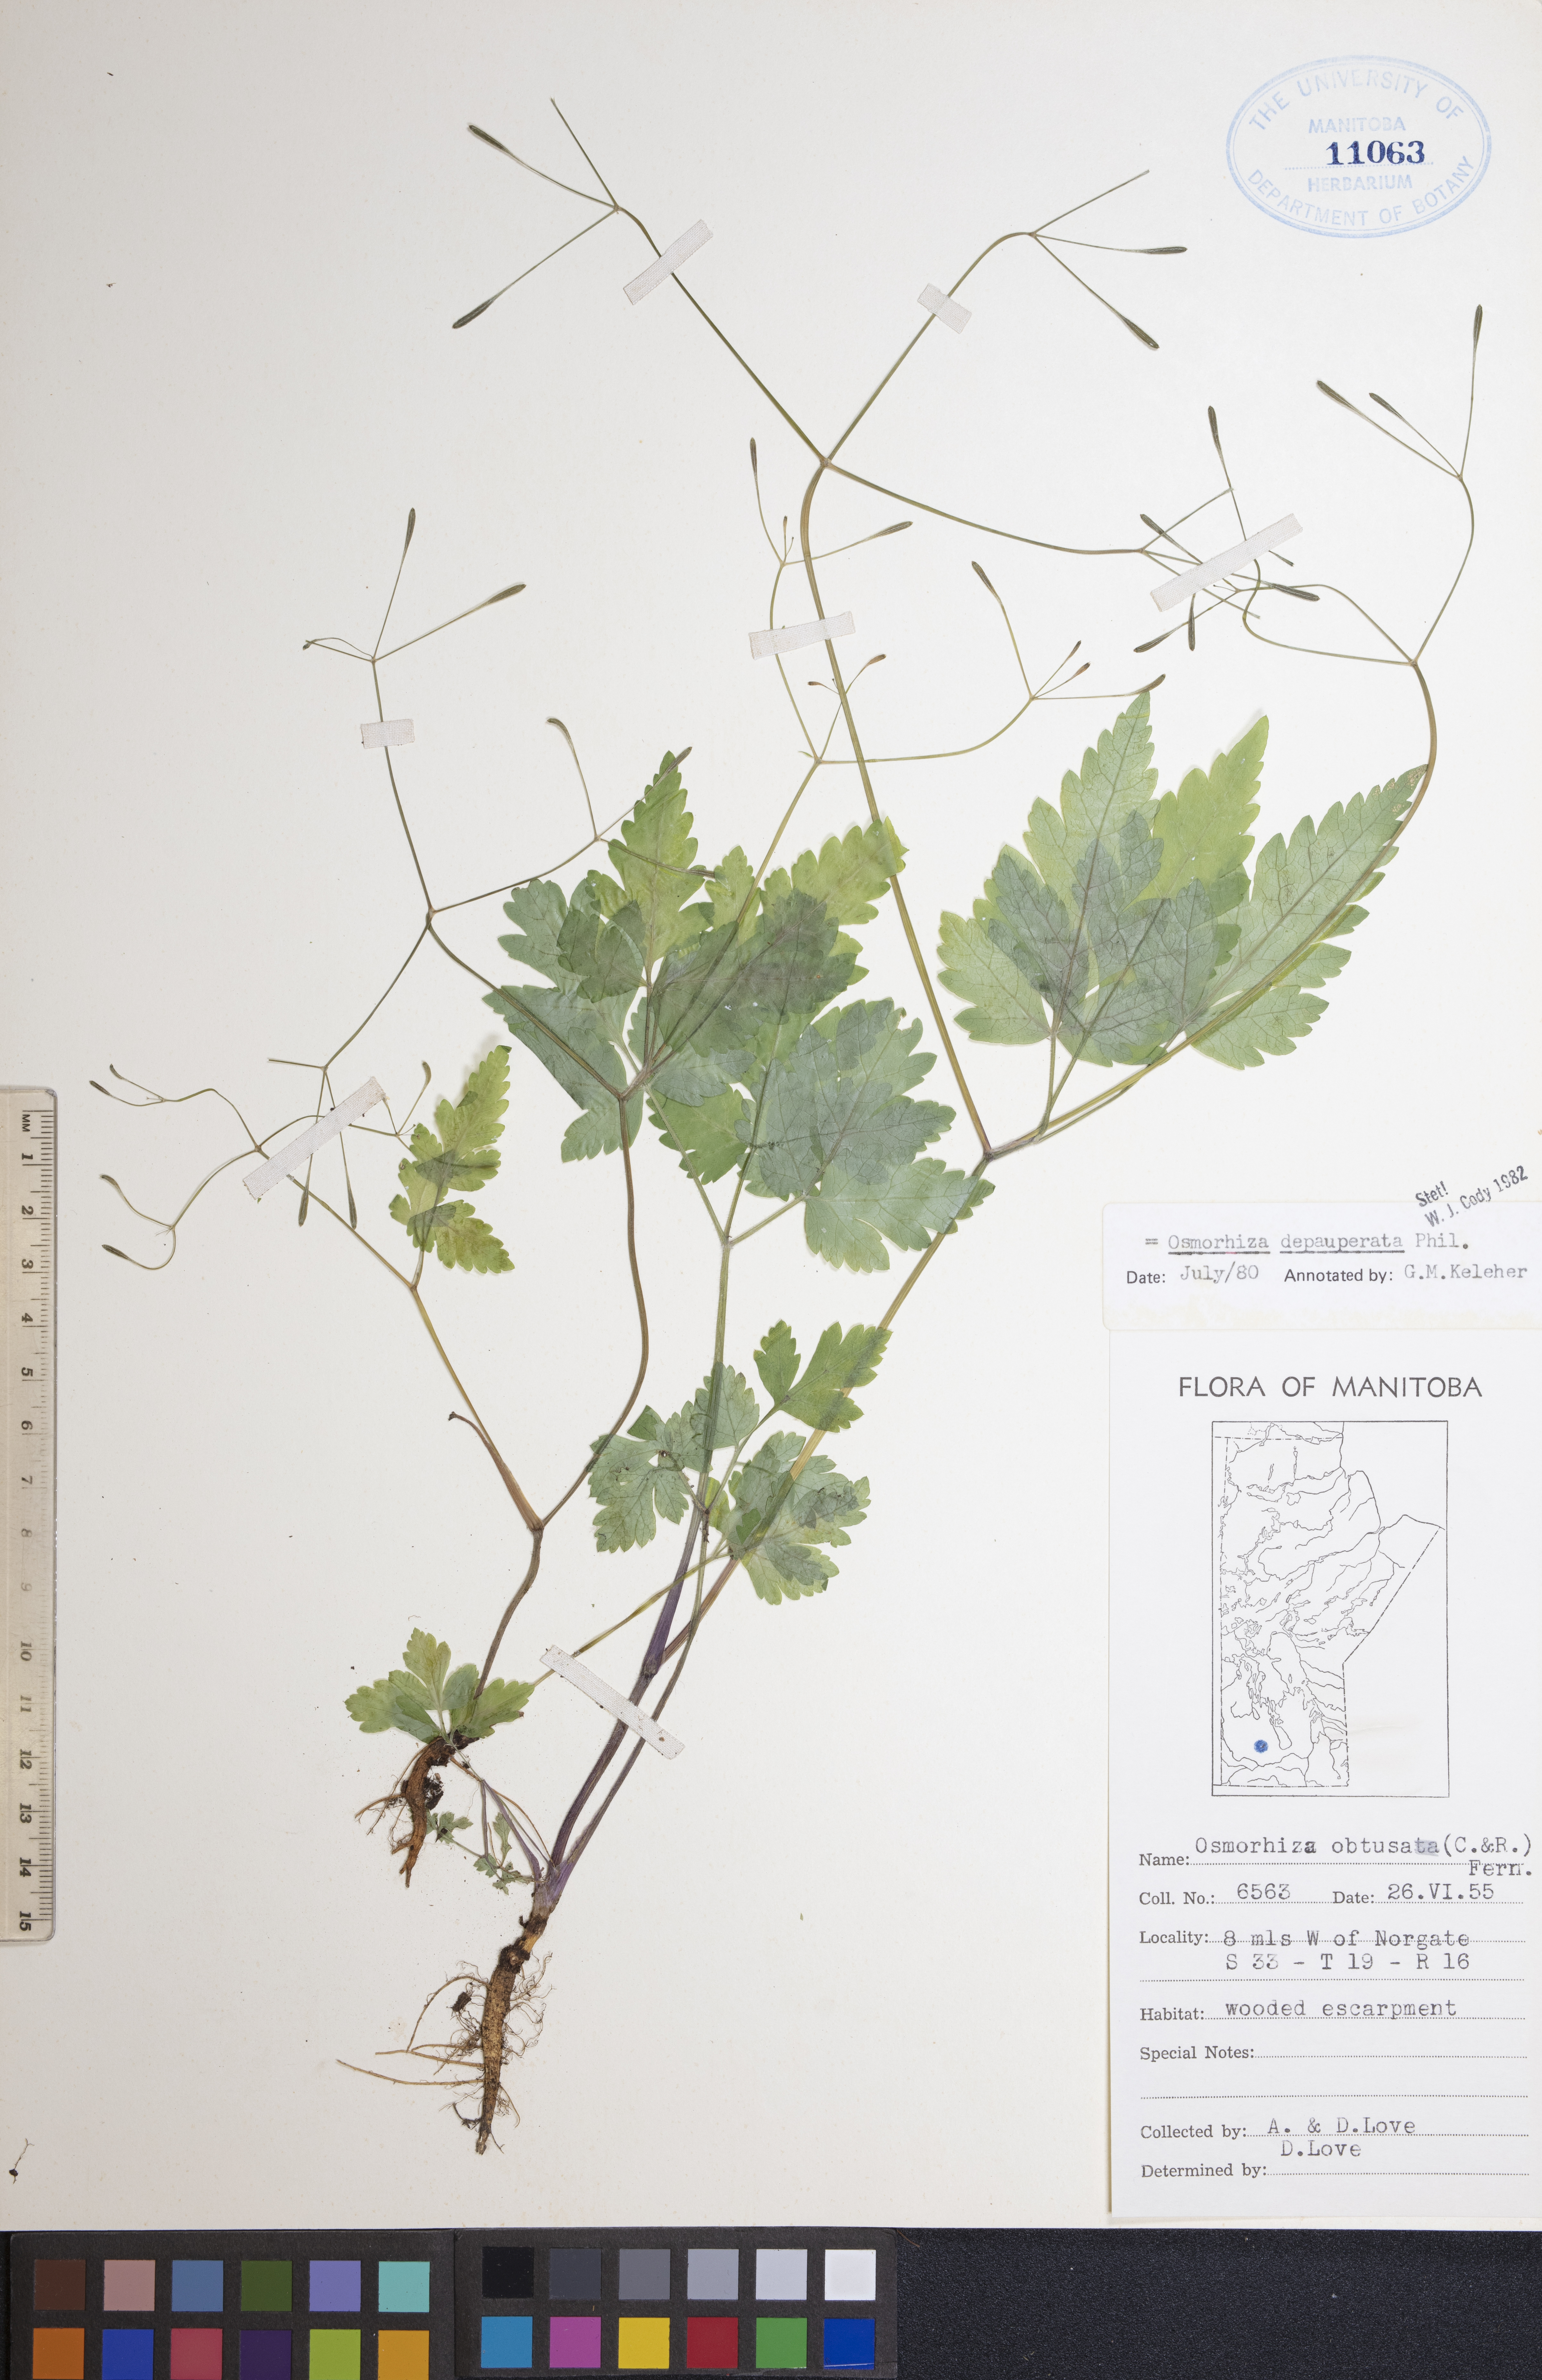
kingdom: Plantae
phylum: Tracheophyta
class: Magnoliopsida
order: Apiales
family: Apiaceae
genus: Osmorhiza
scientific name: Osmorhiza depauperata
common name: Blunt sweet cicely
